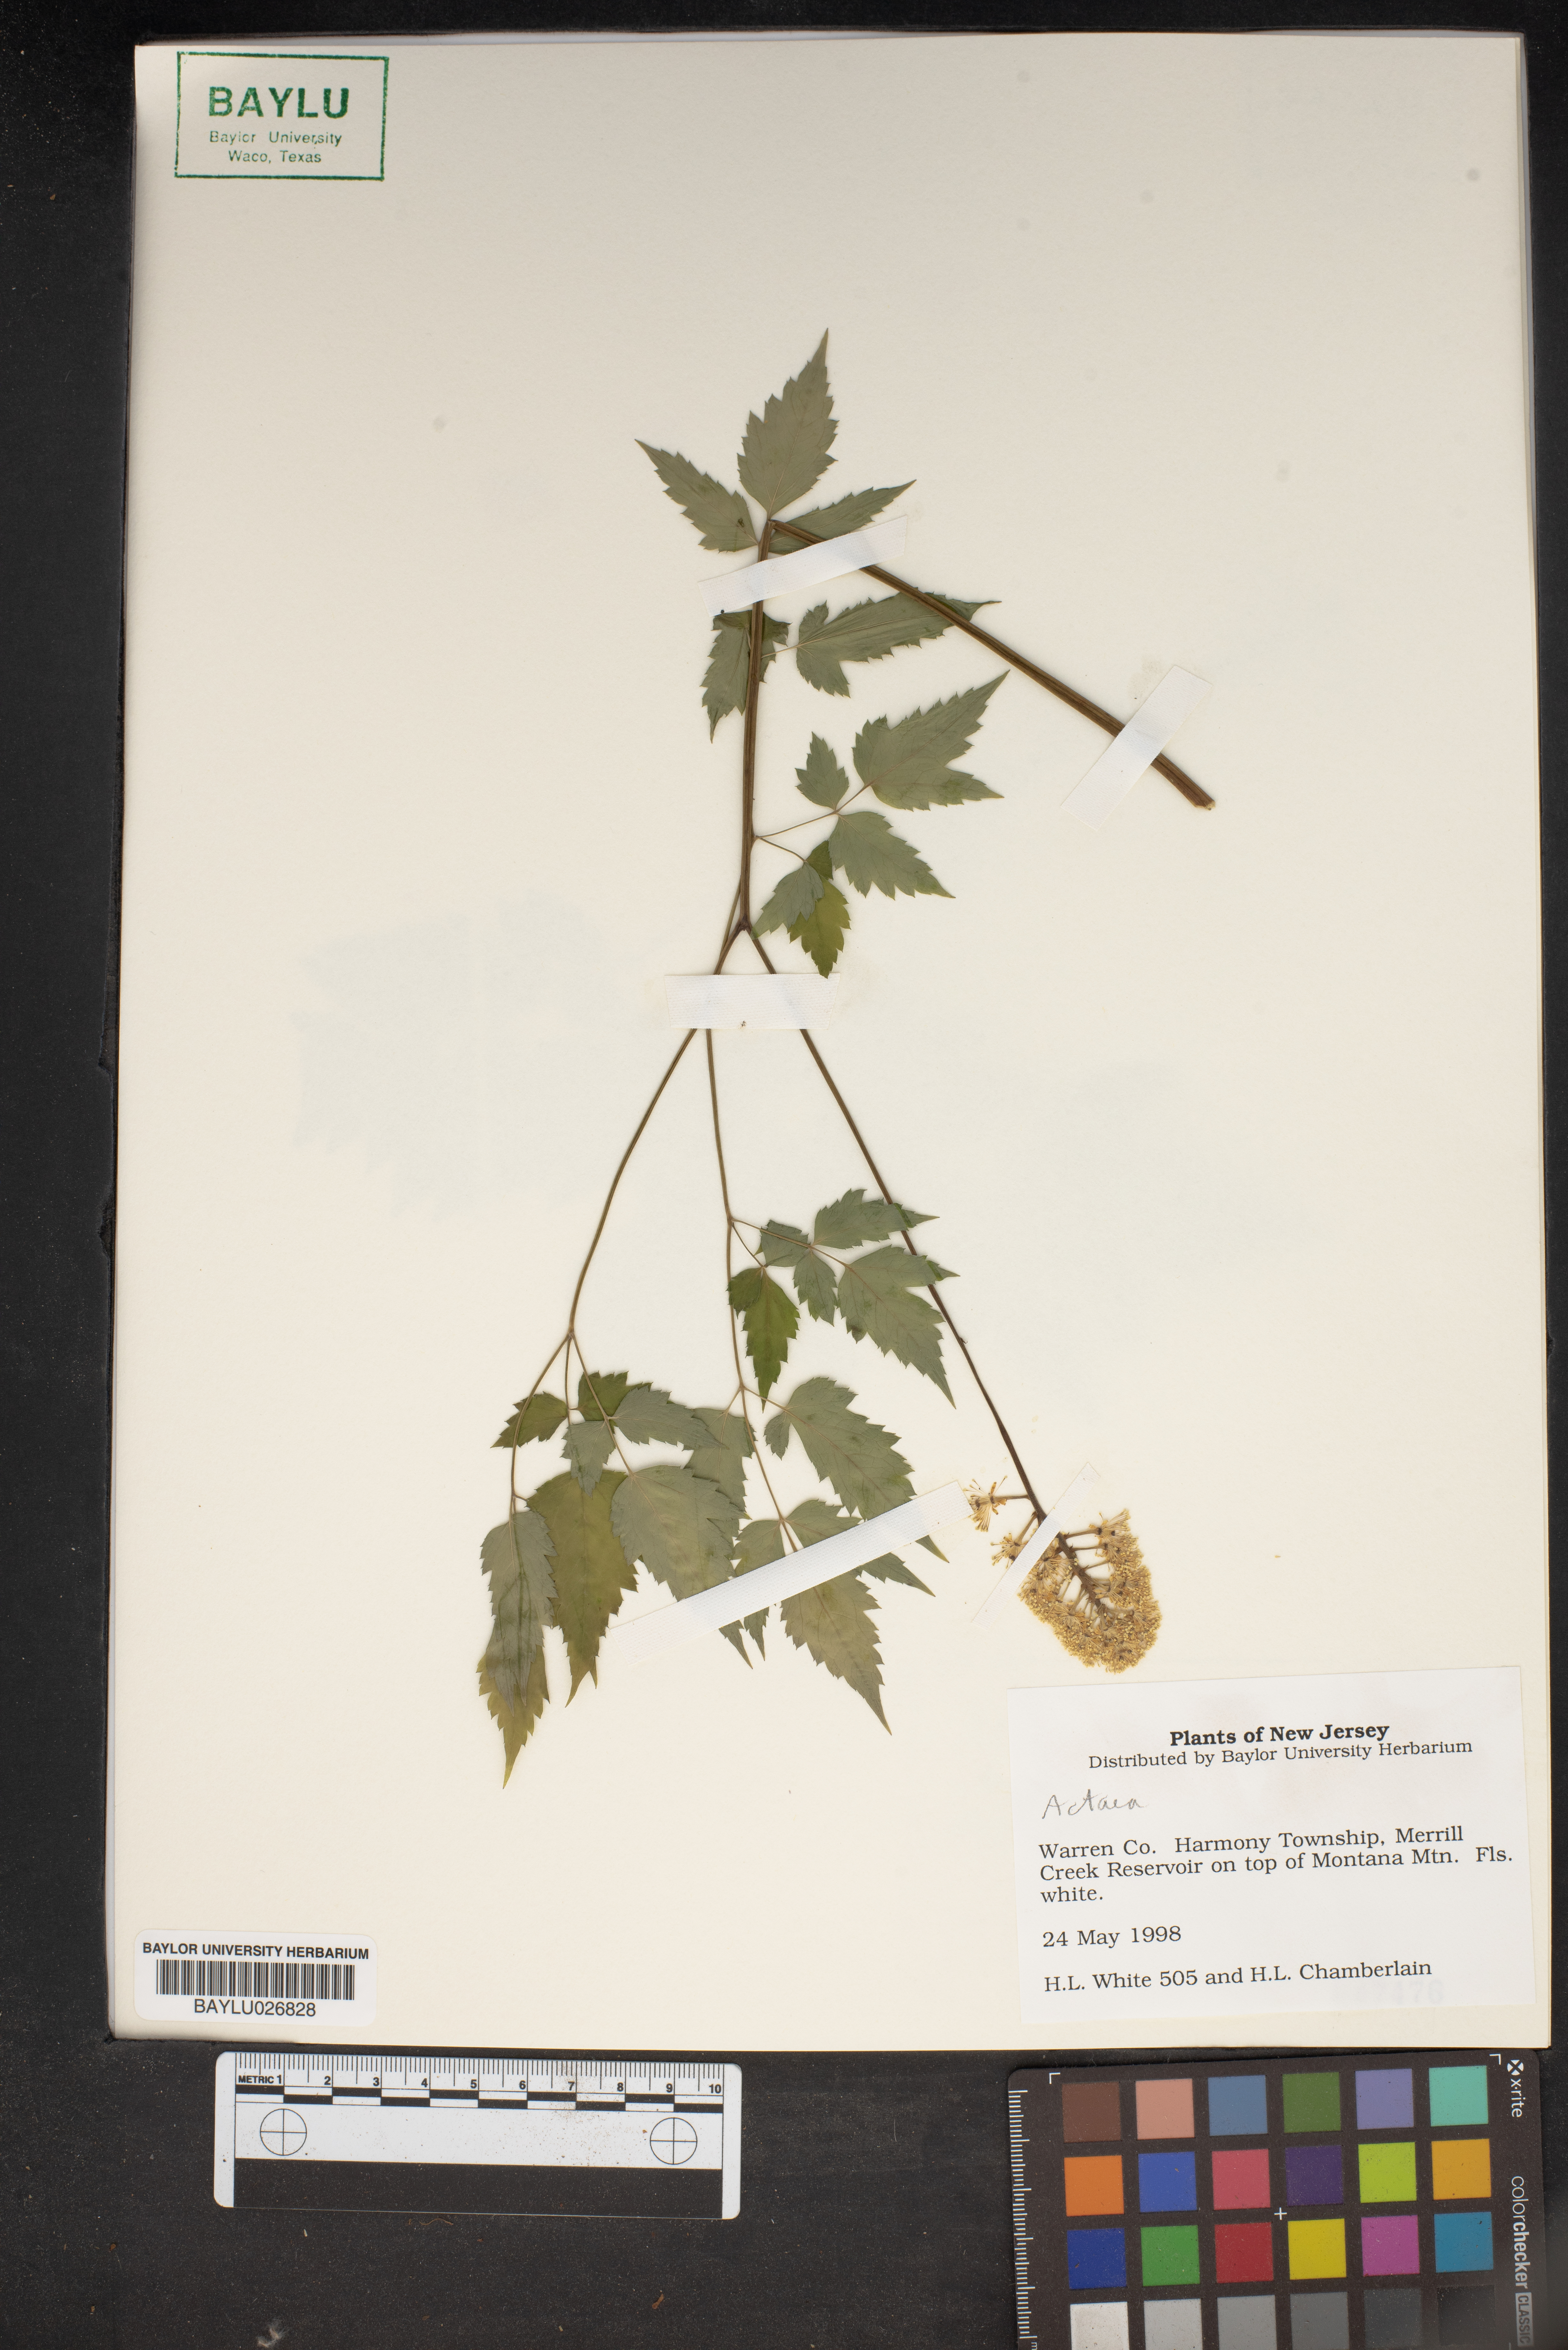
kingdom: Plantae
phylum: Tracheophyta
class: Magnoliopsida
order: Ranunculales
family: Ranunculaceae
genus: Actaea
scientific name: Actaea
